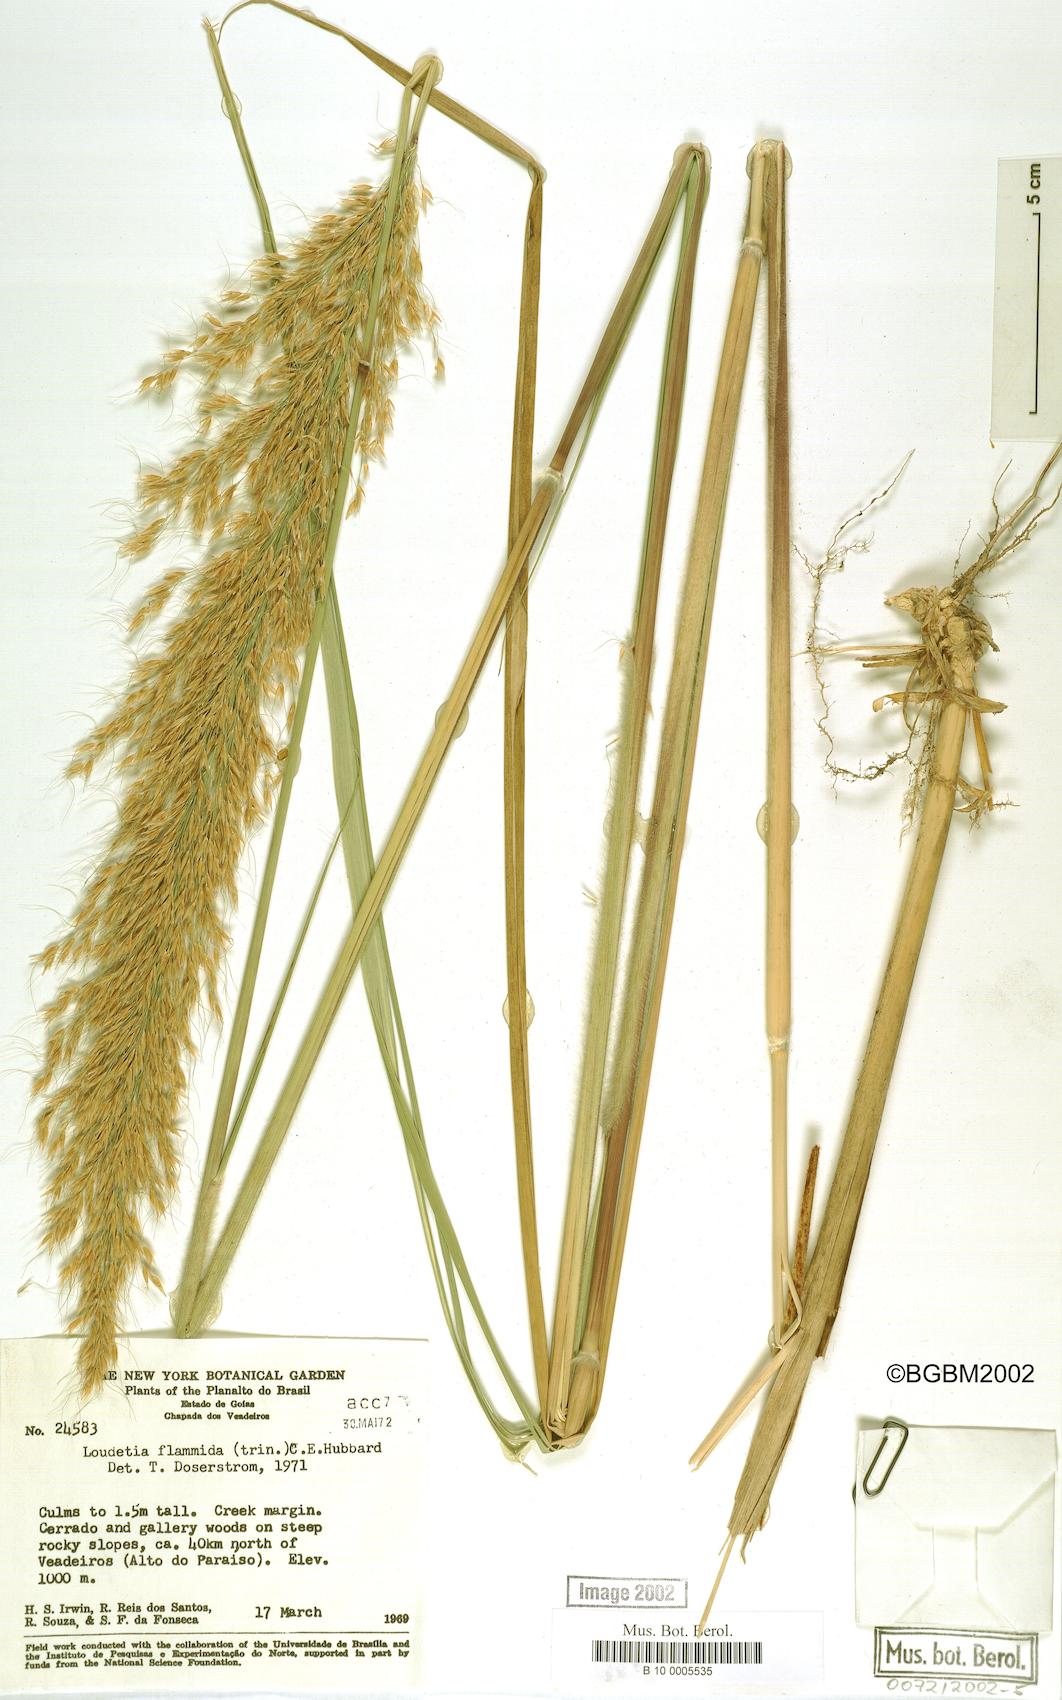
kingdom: Plantae
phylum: Tracheophyta
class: Liliopsida
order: Poales
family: Poaceae
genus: Loudetia
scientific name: Loudetia flammida
